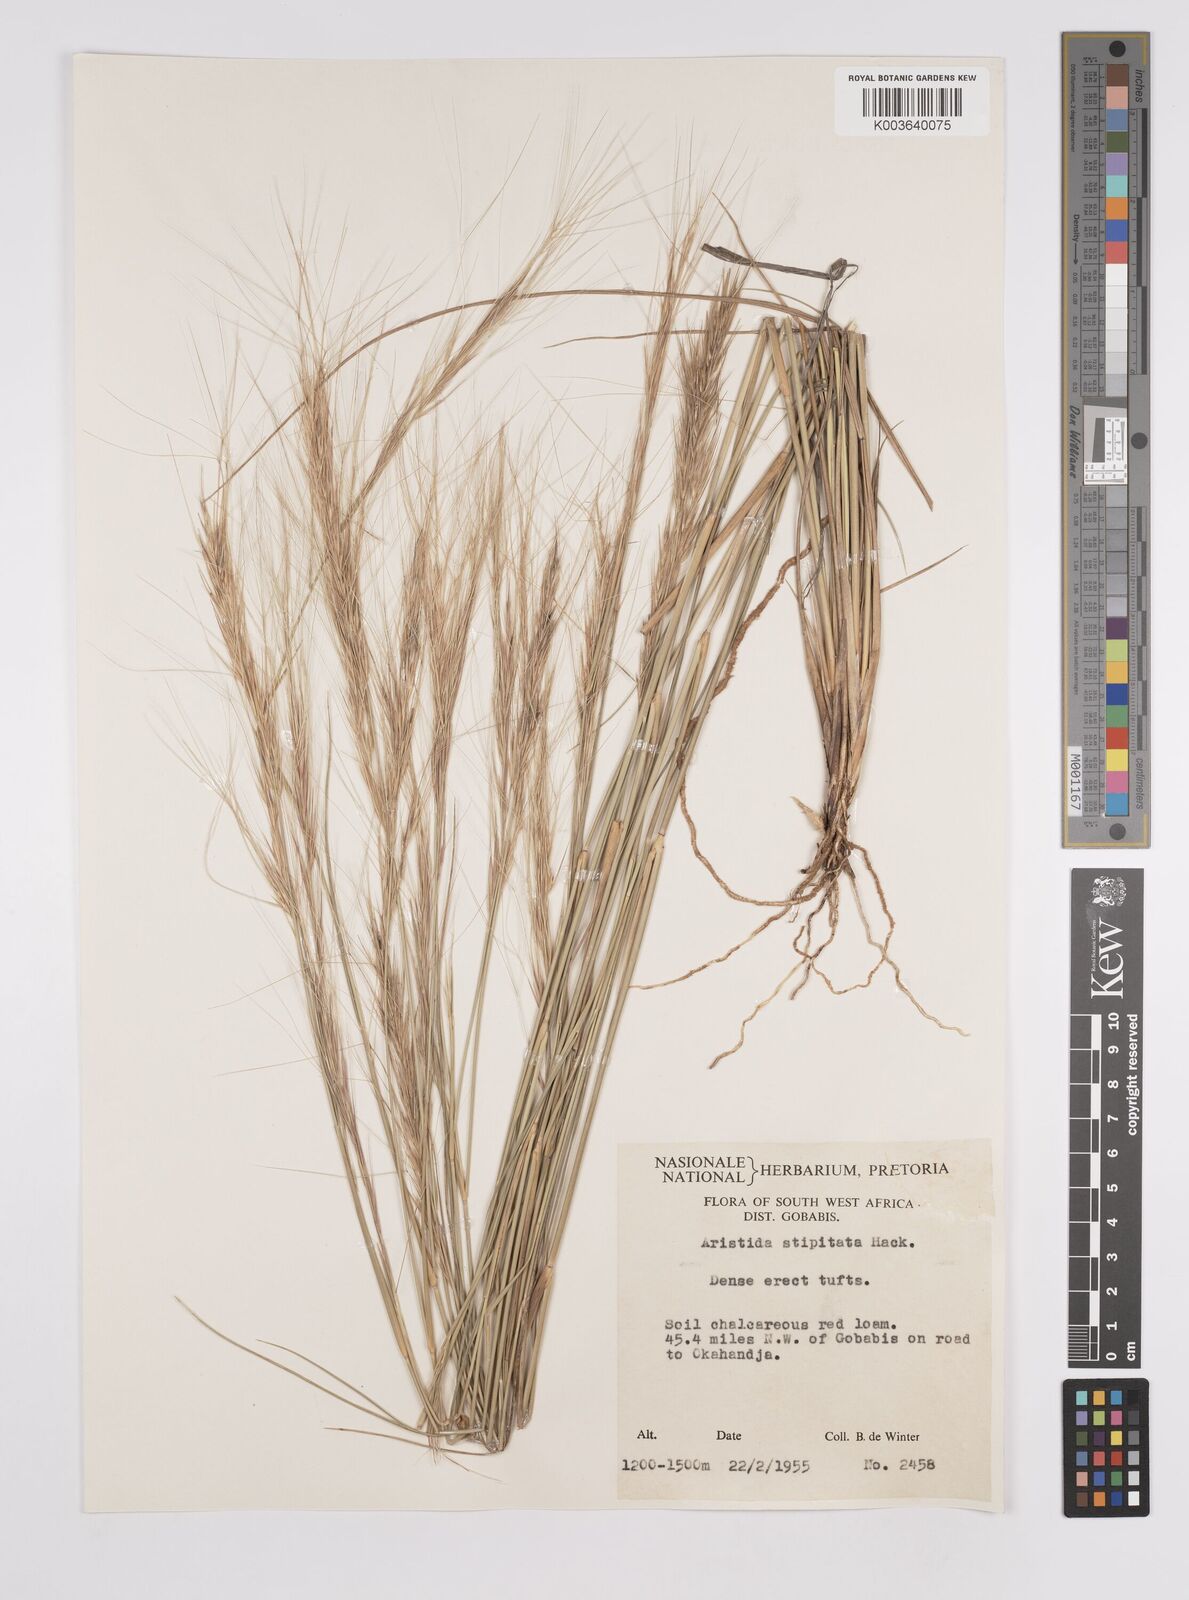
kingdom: Plantae
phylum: Tracheophyta
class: Liliopsida
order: Poales
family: Poaceae
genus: Aristida
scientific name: Aristida stipitata
